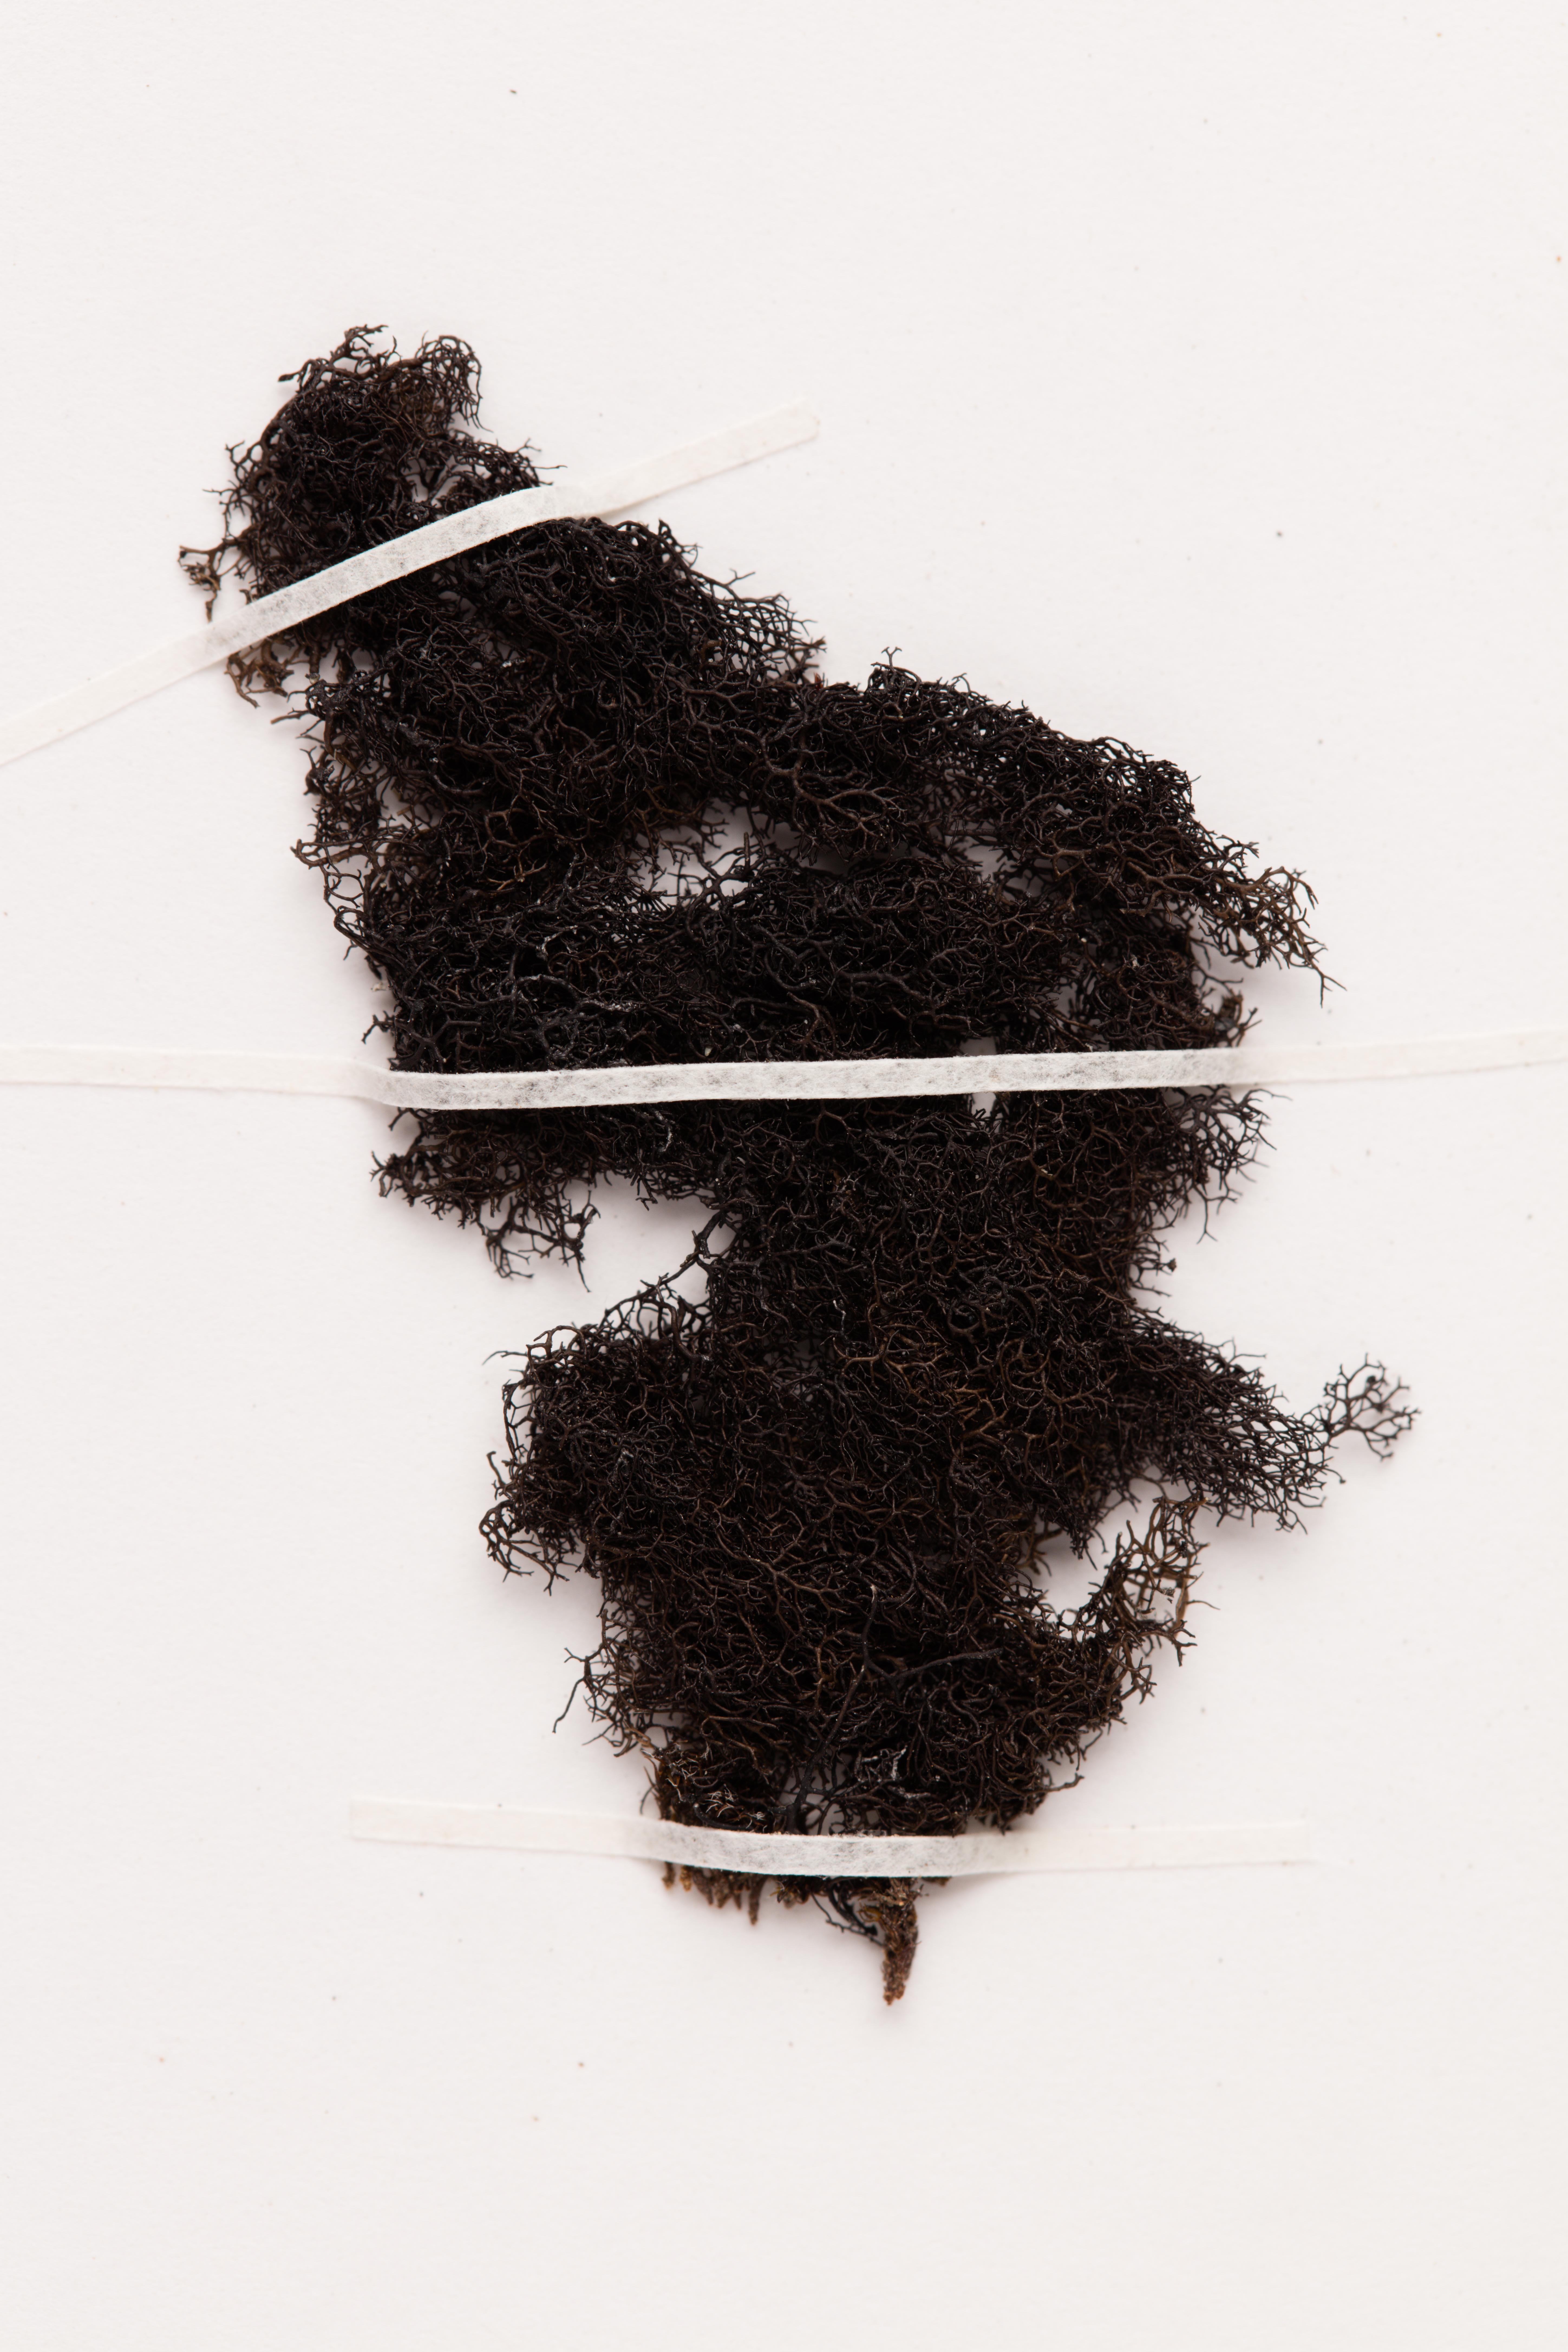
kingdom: Fungi
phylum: Ascomycota
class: Lecanoromycetes
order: Lecanorales
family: Parmeliaceae
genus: Pseudephebe
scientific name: Pseudephebe pubescens
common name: Fine rockwool lichen
